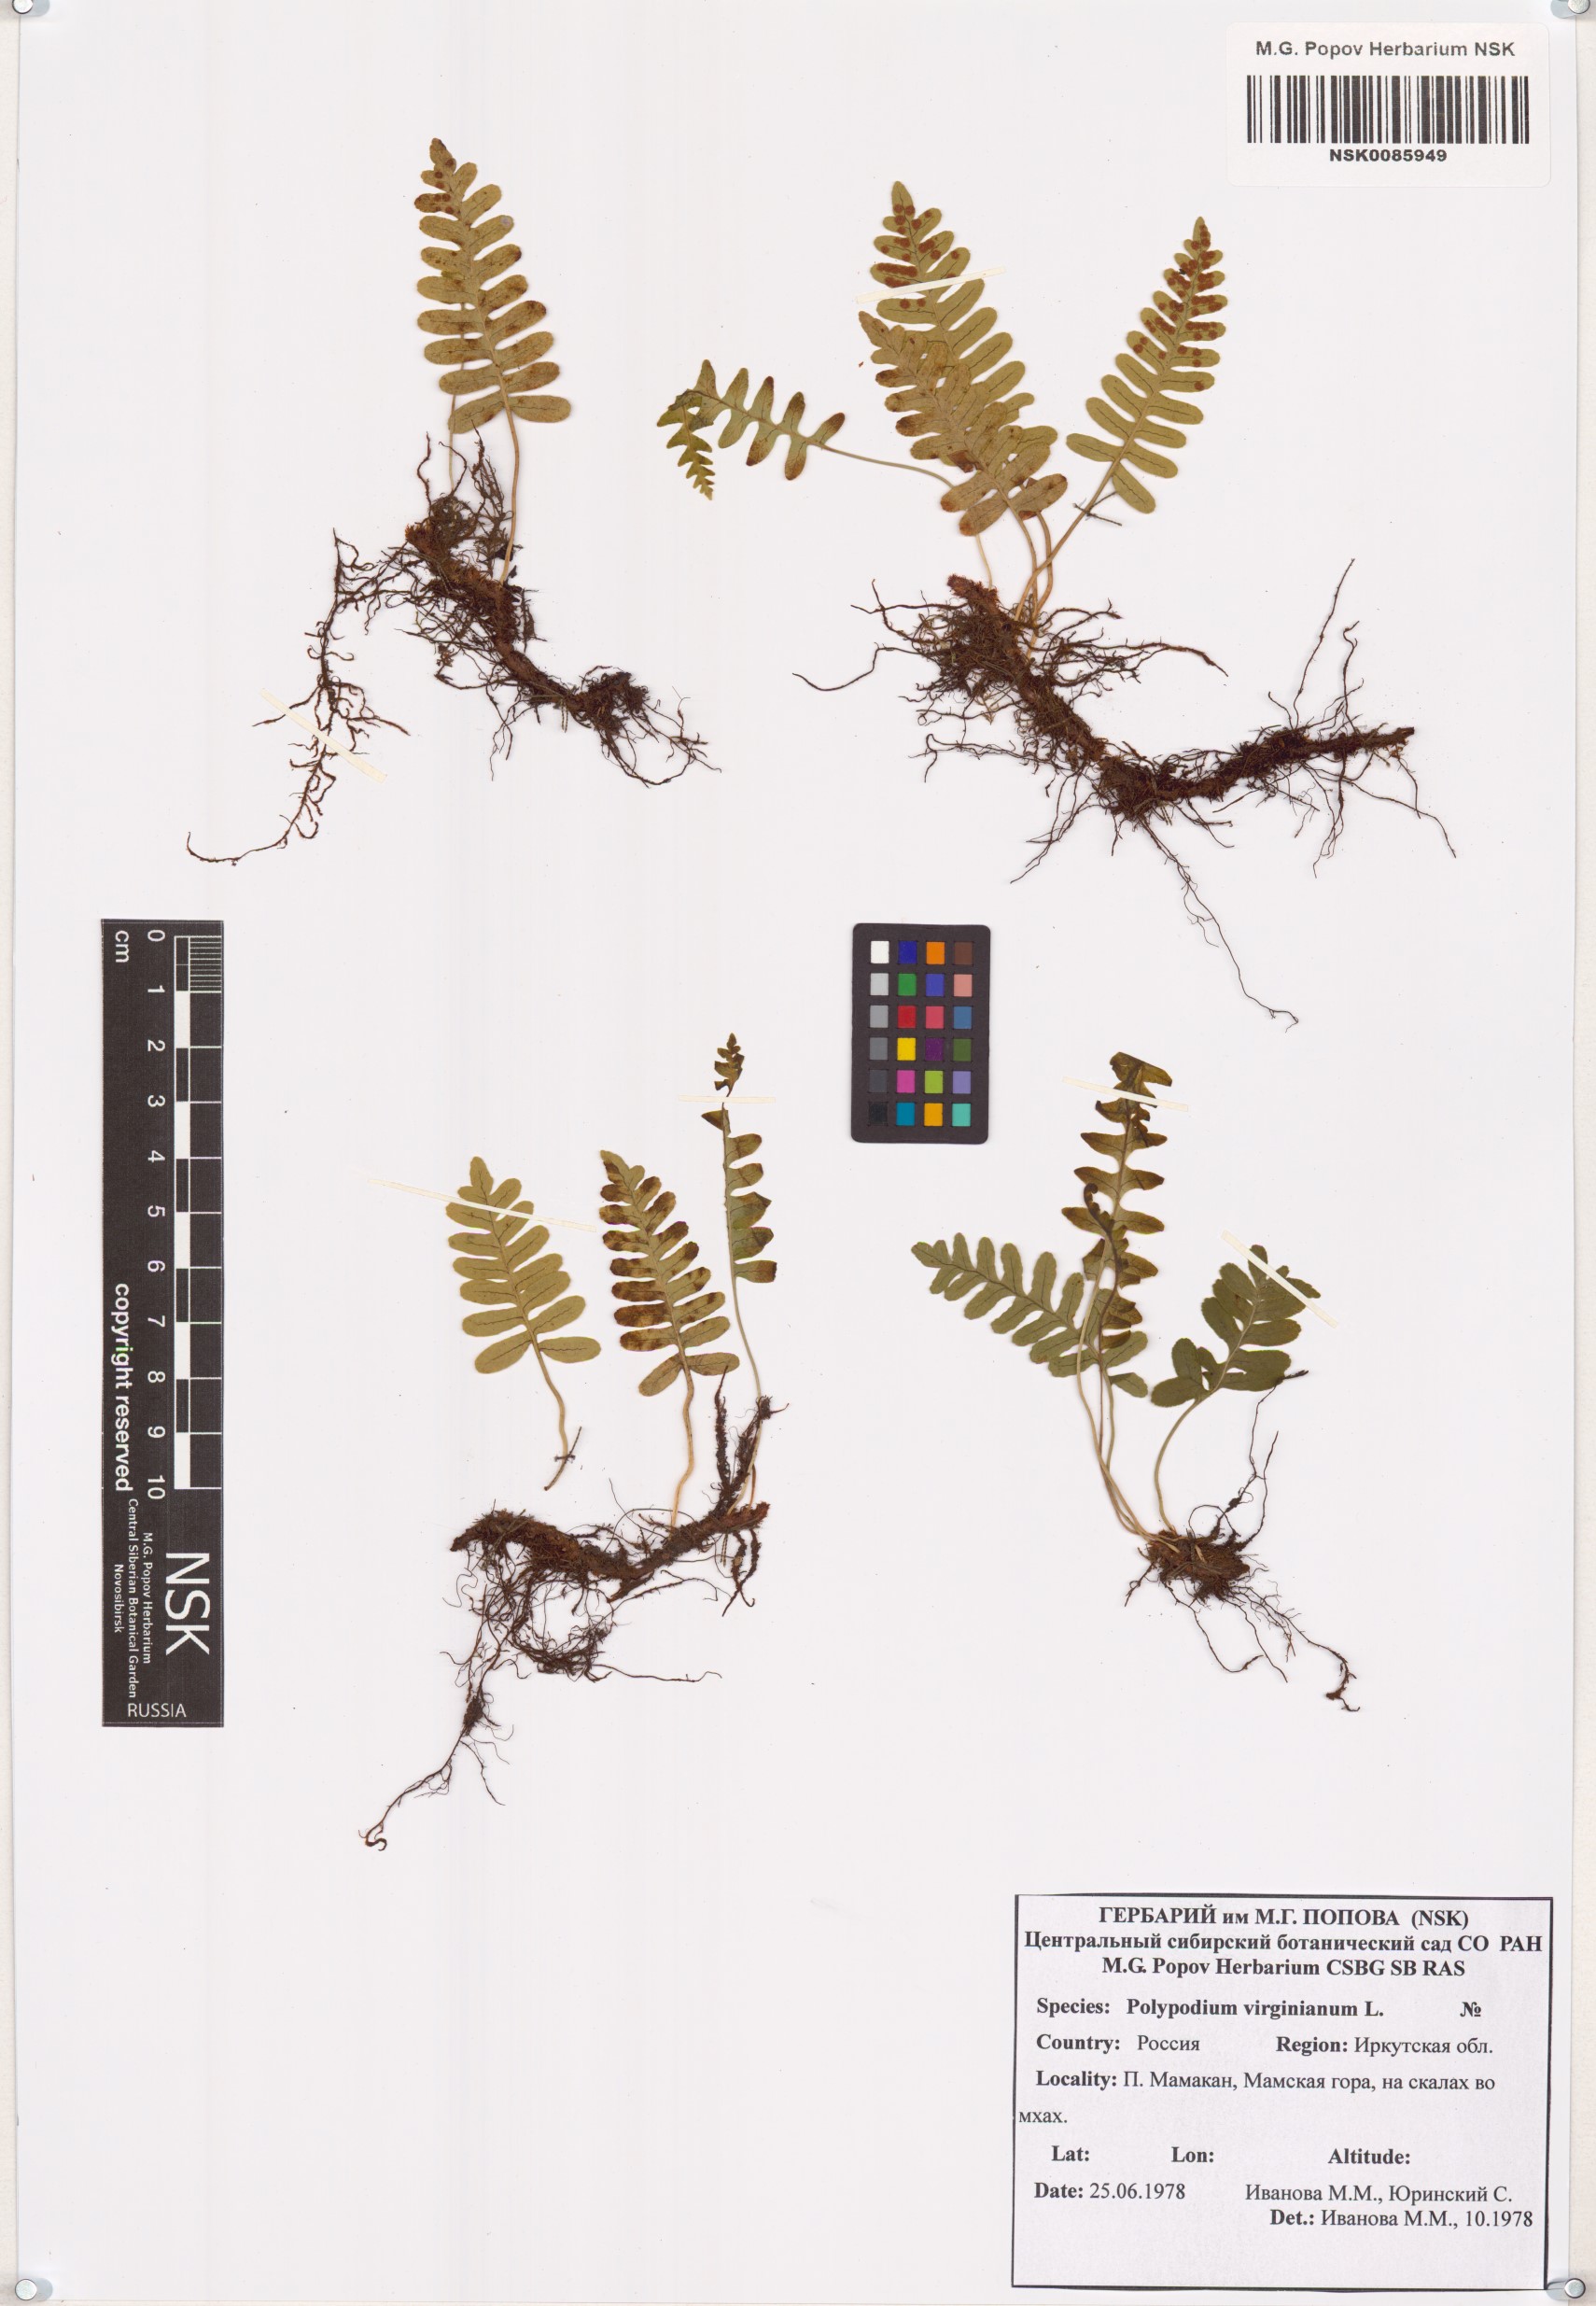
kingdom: Plantae
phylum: Tracheophyta
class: Polypodiopsida
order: Polypodiales
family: Polypodiaceae
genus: Polypodium
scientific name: Polypodium virginianum
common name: American wall fern
